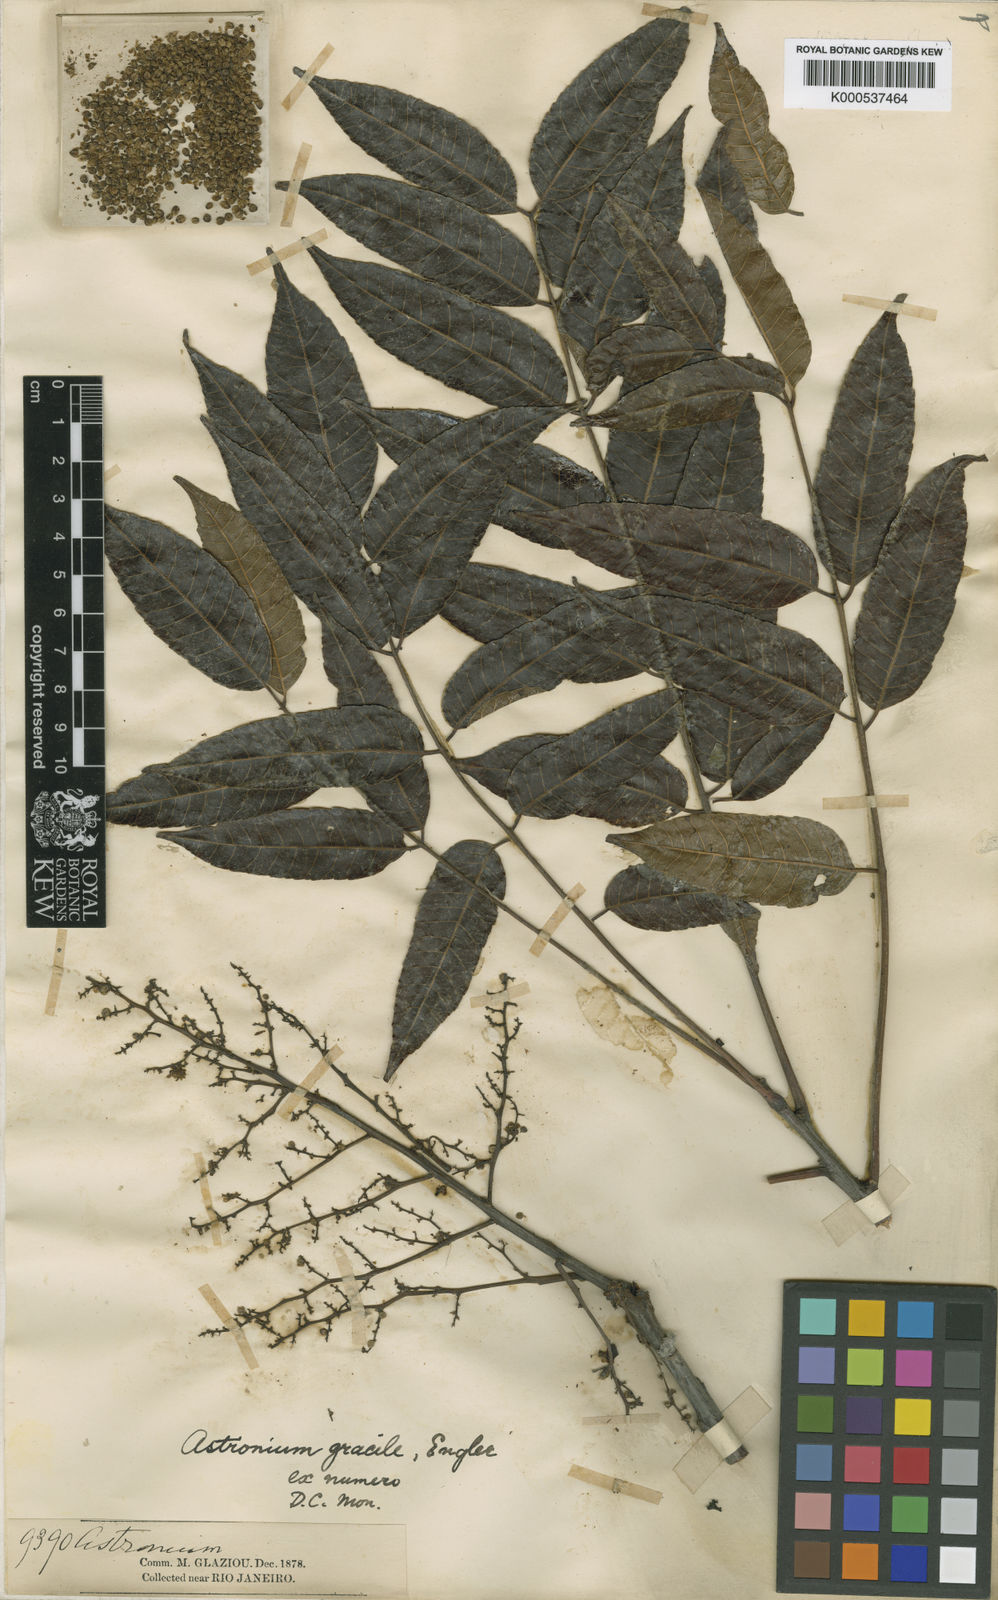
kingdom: Plantae
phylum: Tracheophyta
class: Magnoliopsida
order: Sapindales
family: Anacardiaceae
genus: Astronium
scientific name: Astronium gracile
